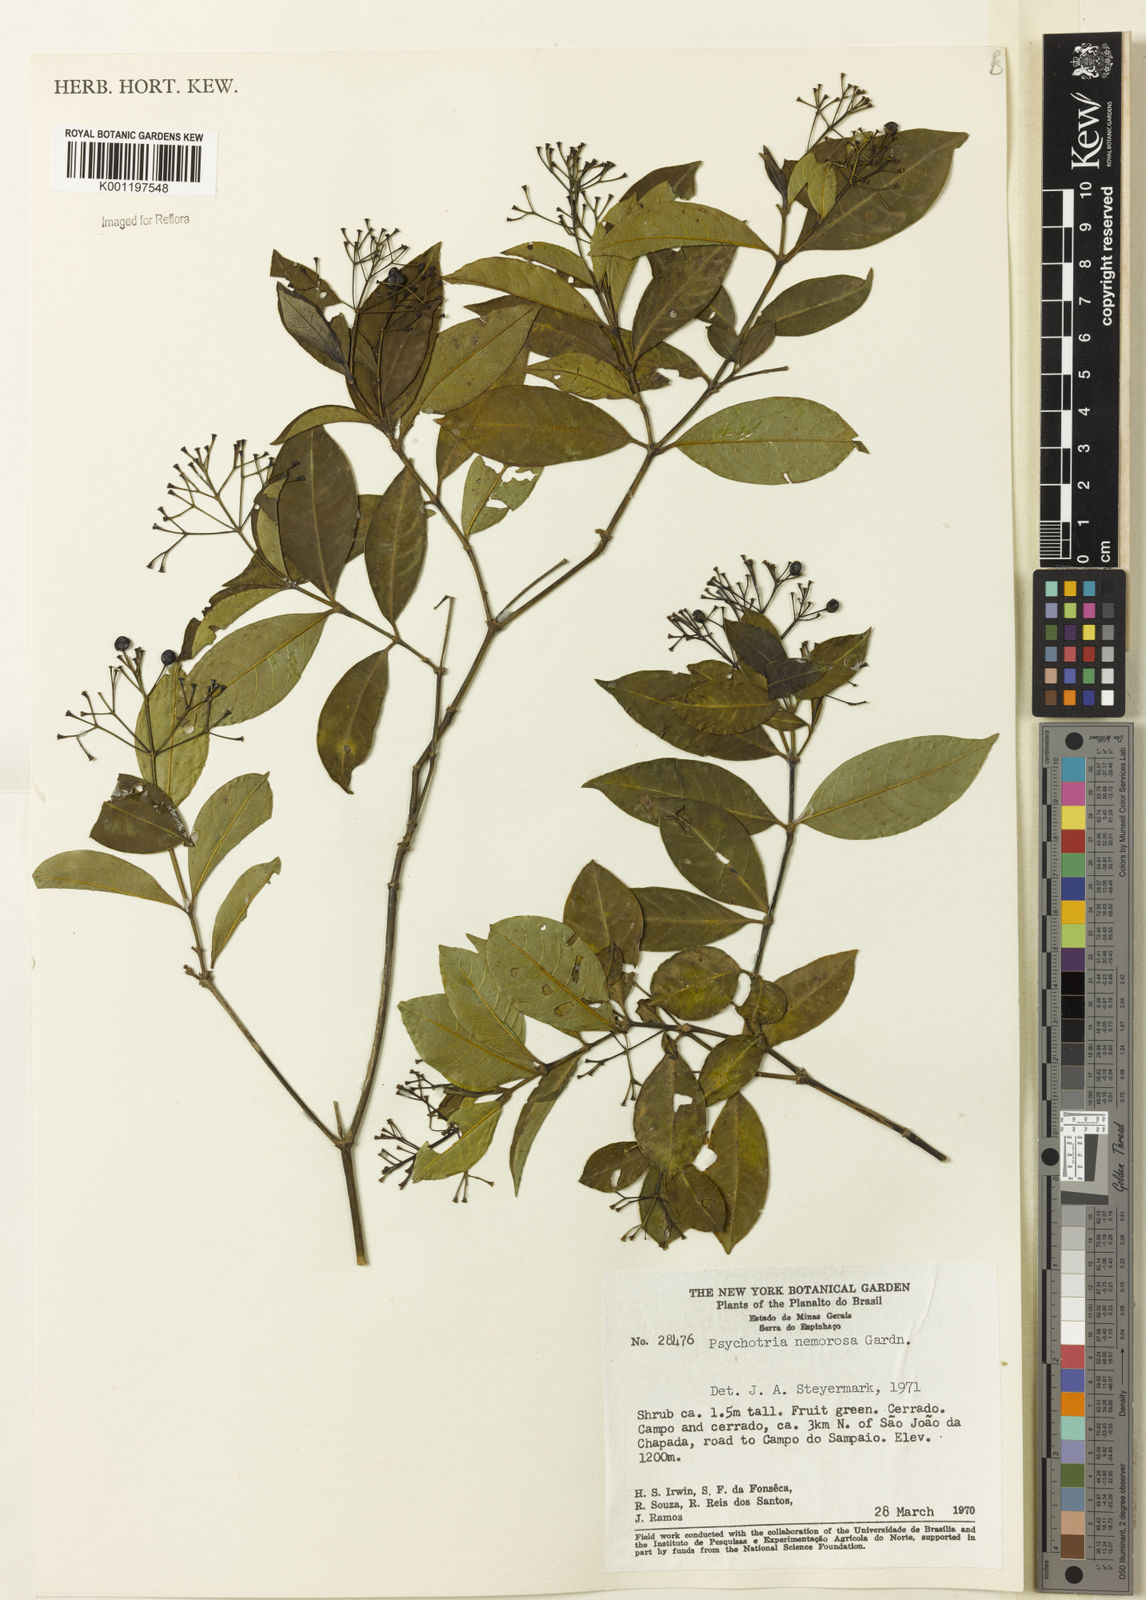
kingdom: Plantae
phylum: Tracheophyta
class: Magnoliopsida
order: Gentianales
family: Rubiaceae
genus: Psychotria
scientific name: Psychotria nemorosa
